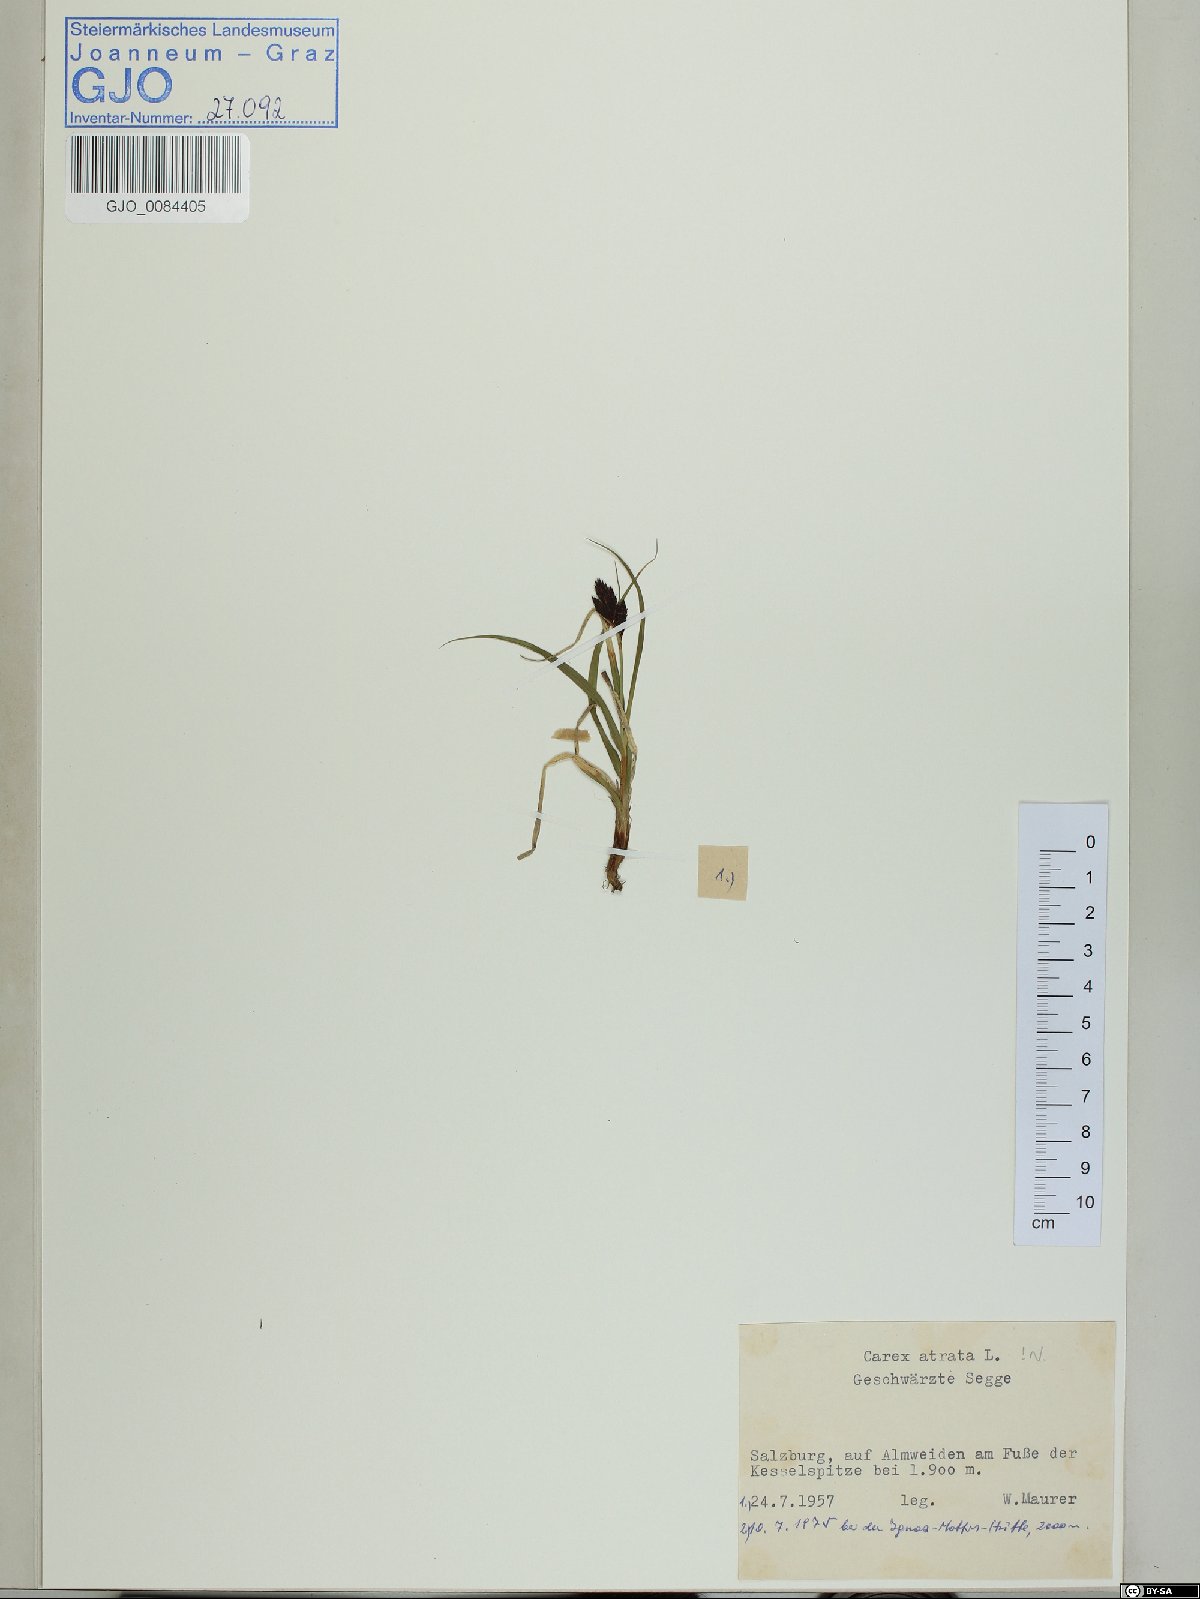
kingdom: Plantae
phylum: Tracheophyta
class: Liliopsida
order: Poales
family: Cyperaceae
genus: Carex
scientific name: Carex atrata
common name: Black alpine sedge
